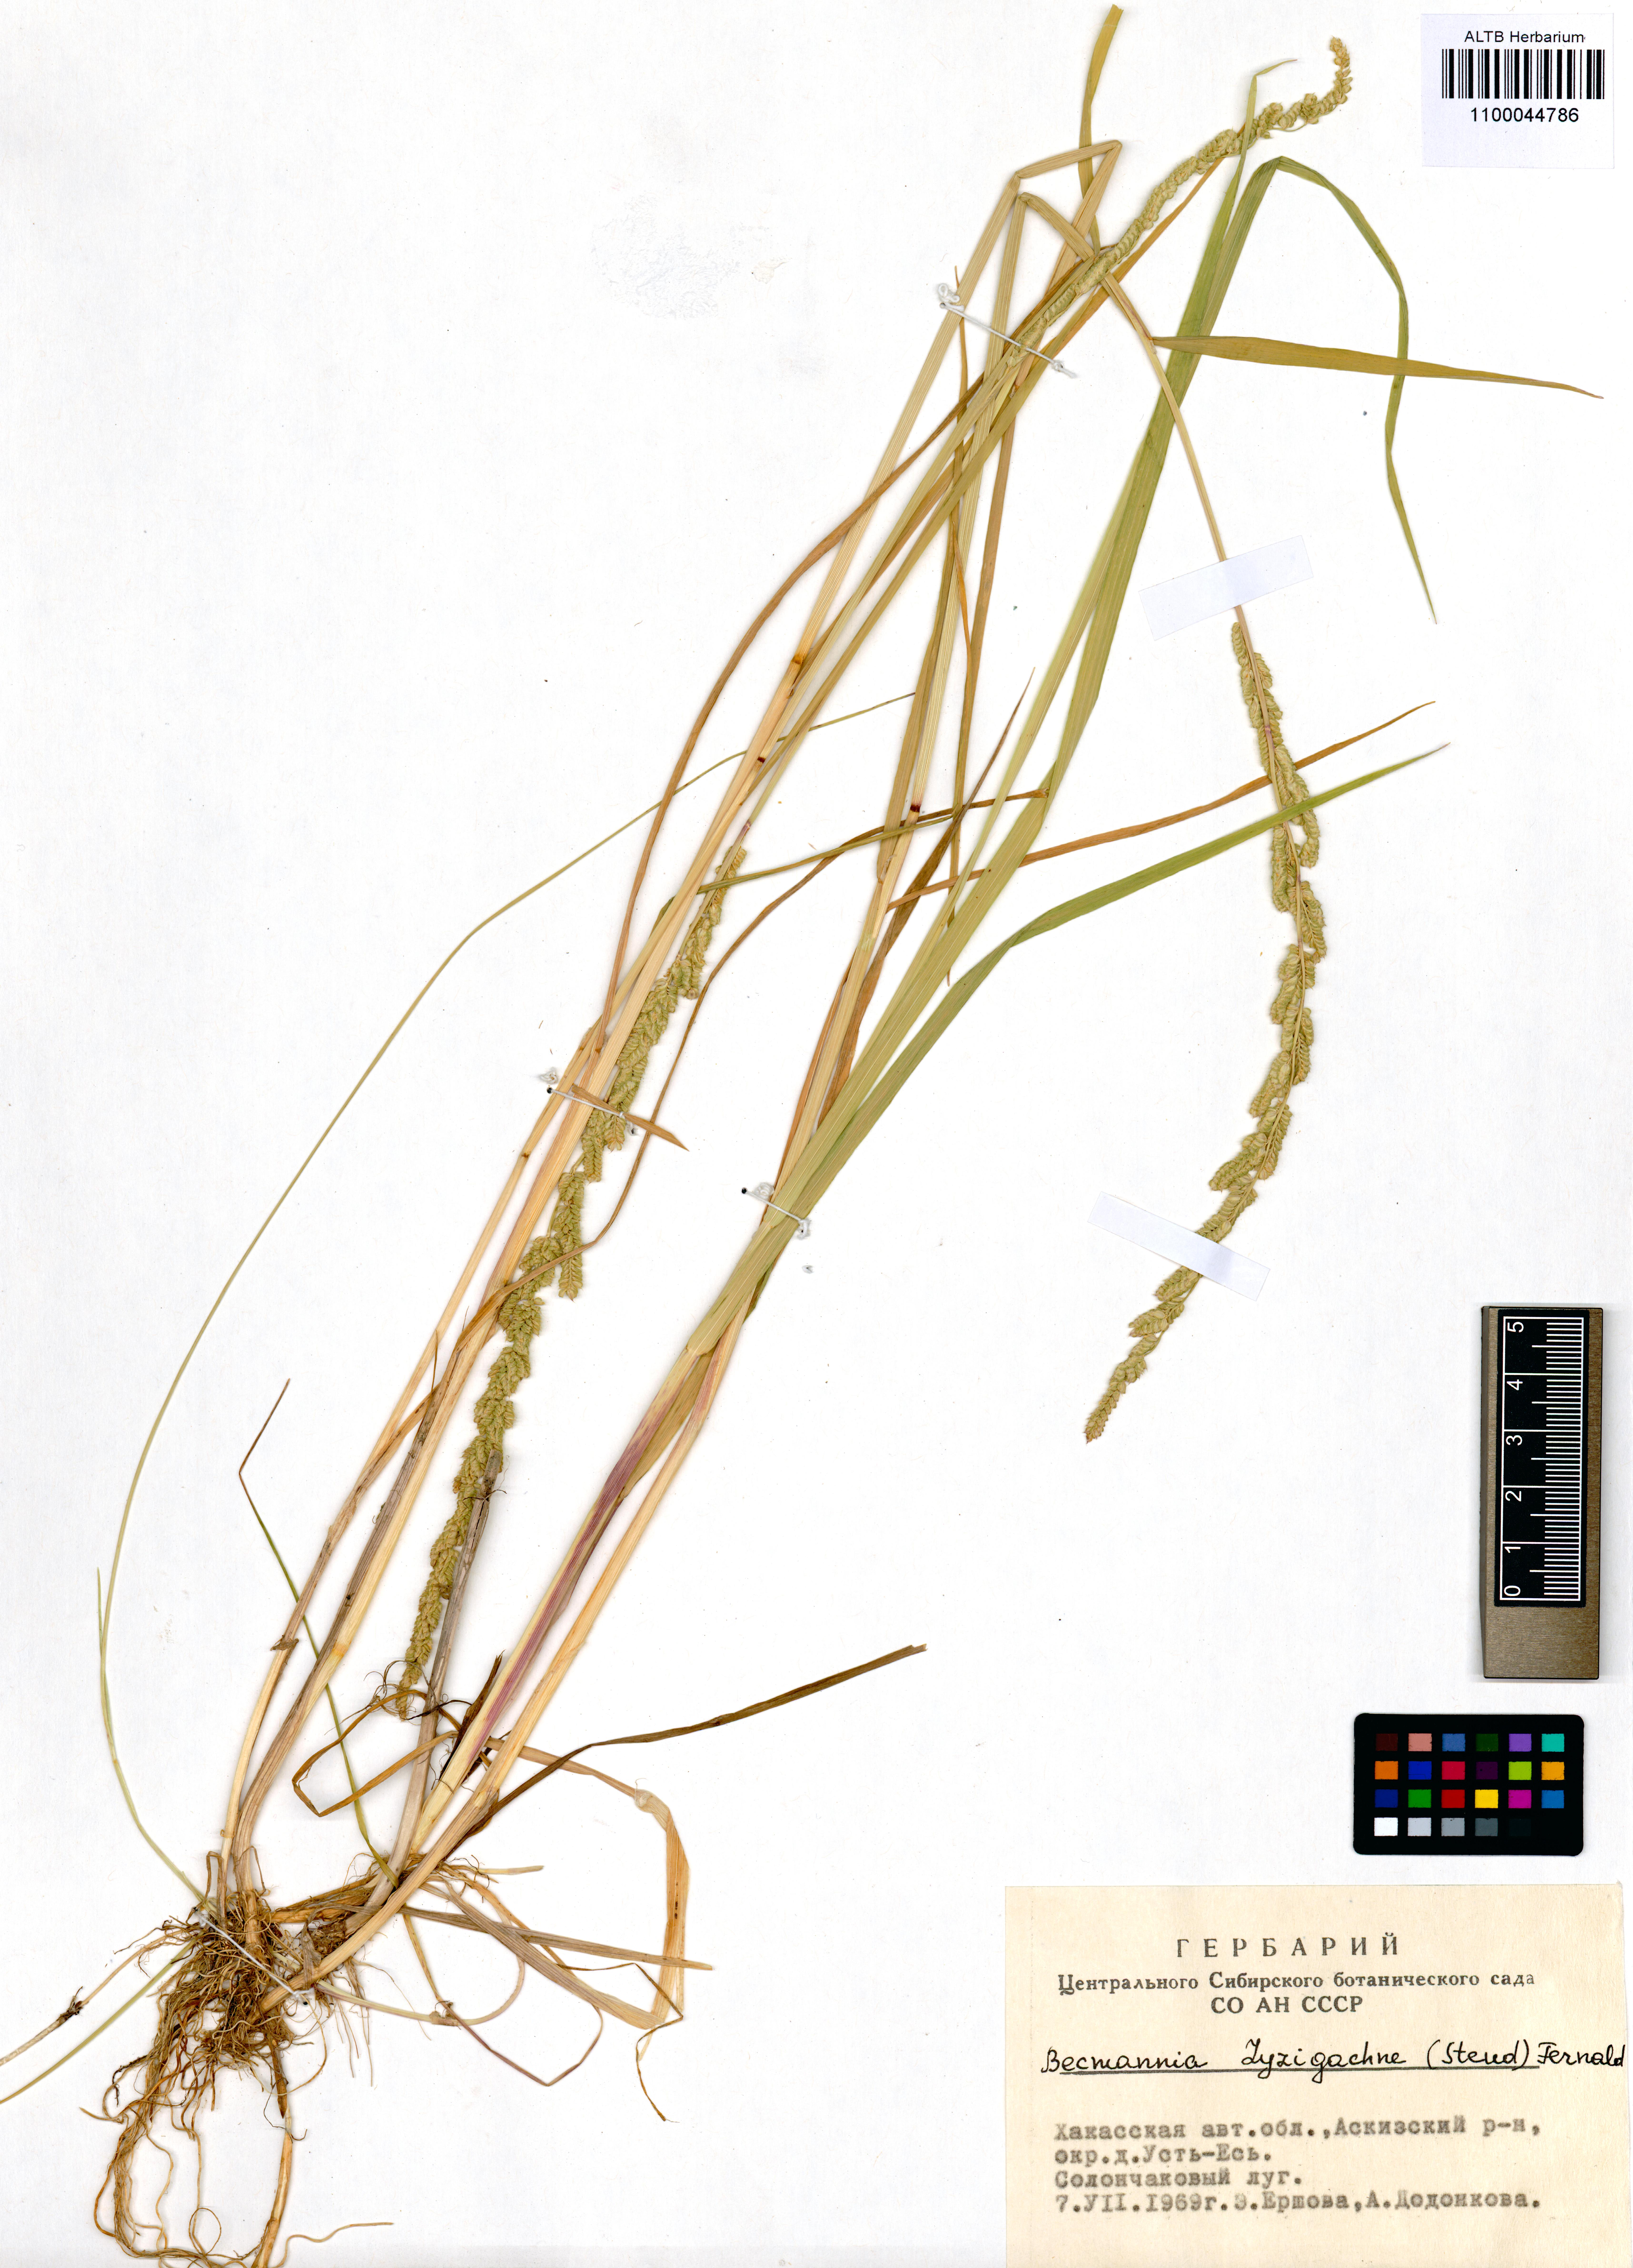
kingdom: Plantae
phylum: Tracheophyta
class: Liliopsida
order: Poales
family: Poaceae
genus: Beckmannia
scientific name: Beckmannia syzigachne
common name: American slough-grass
